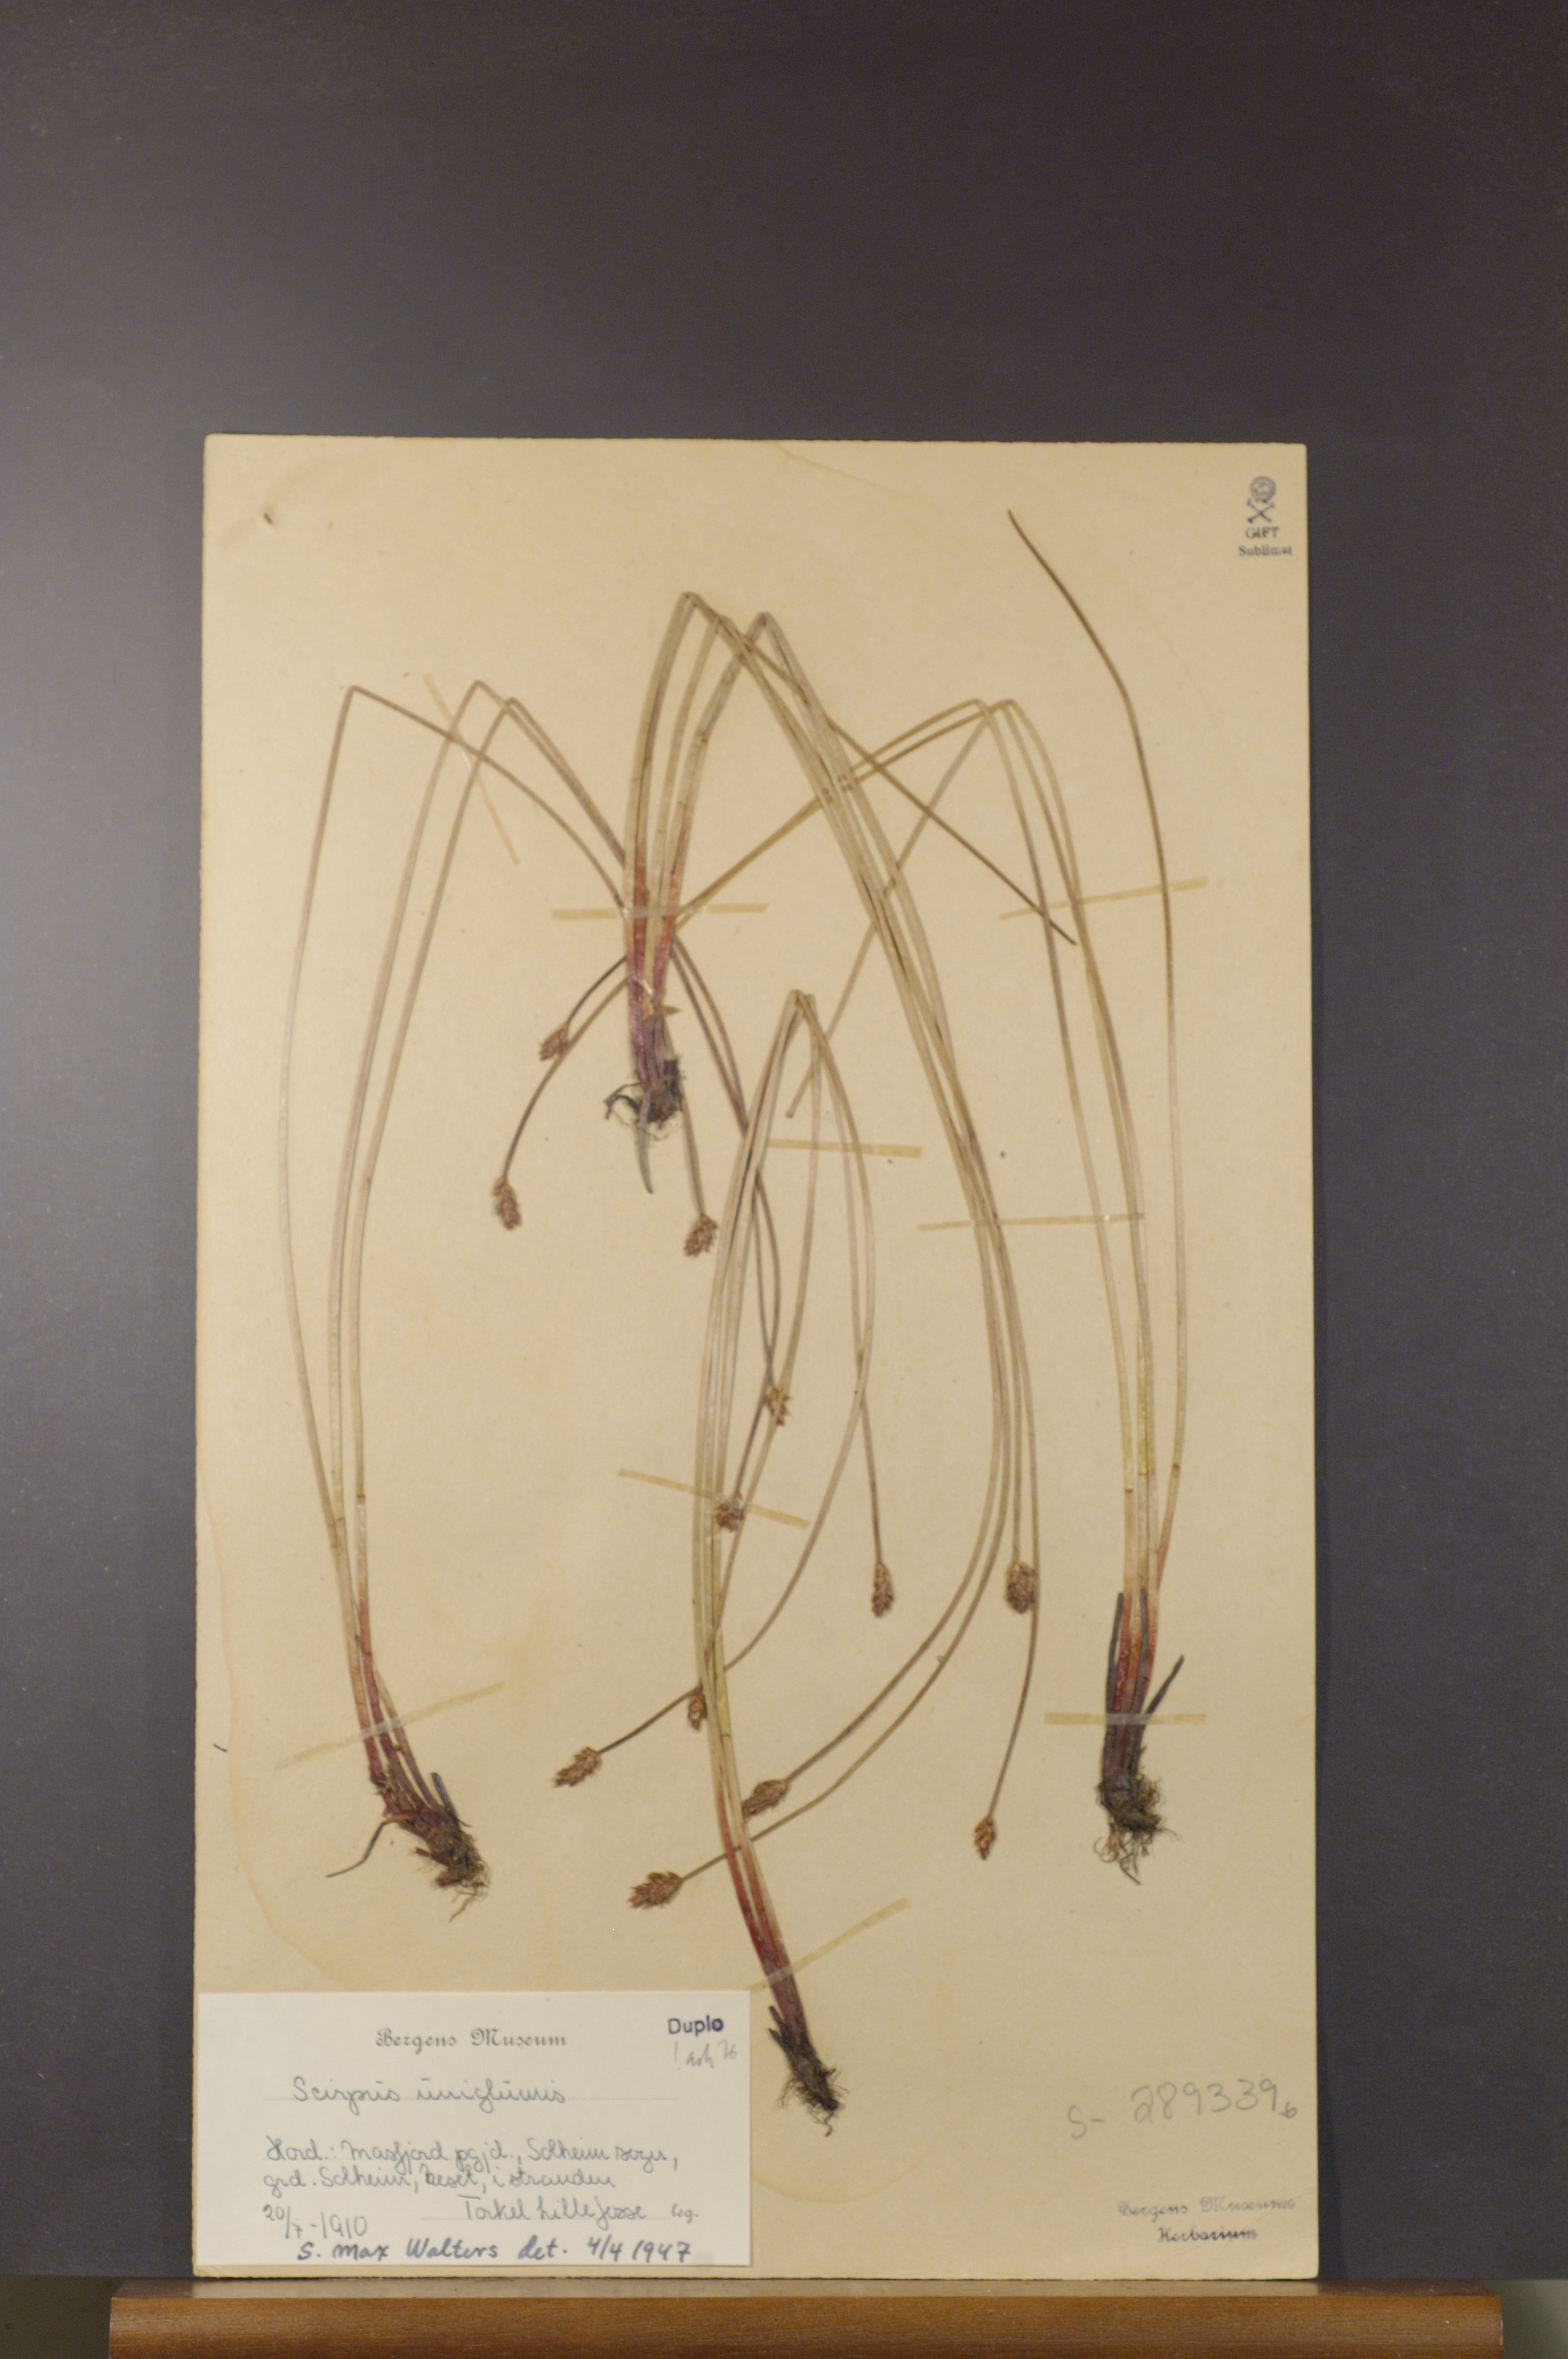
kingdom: Plantae
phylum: Tracheophyta
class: Liliopsida
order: Poales
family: Cyperaceae
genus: Eleocharis
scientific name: Eleocharis uniglumis
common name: Slender spike-rush
